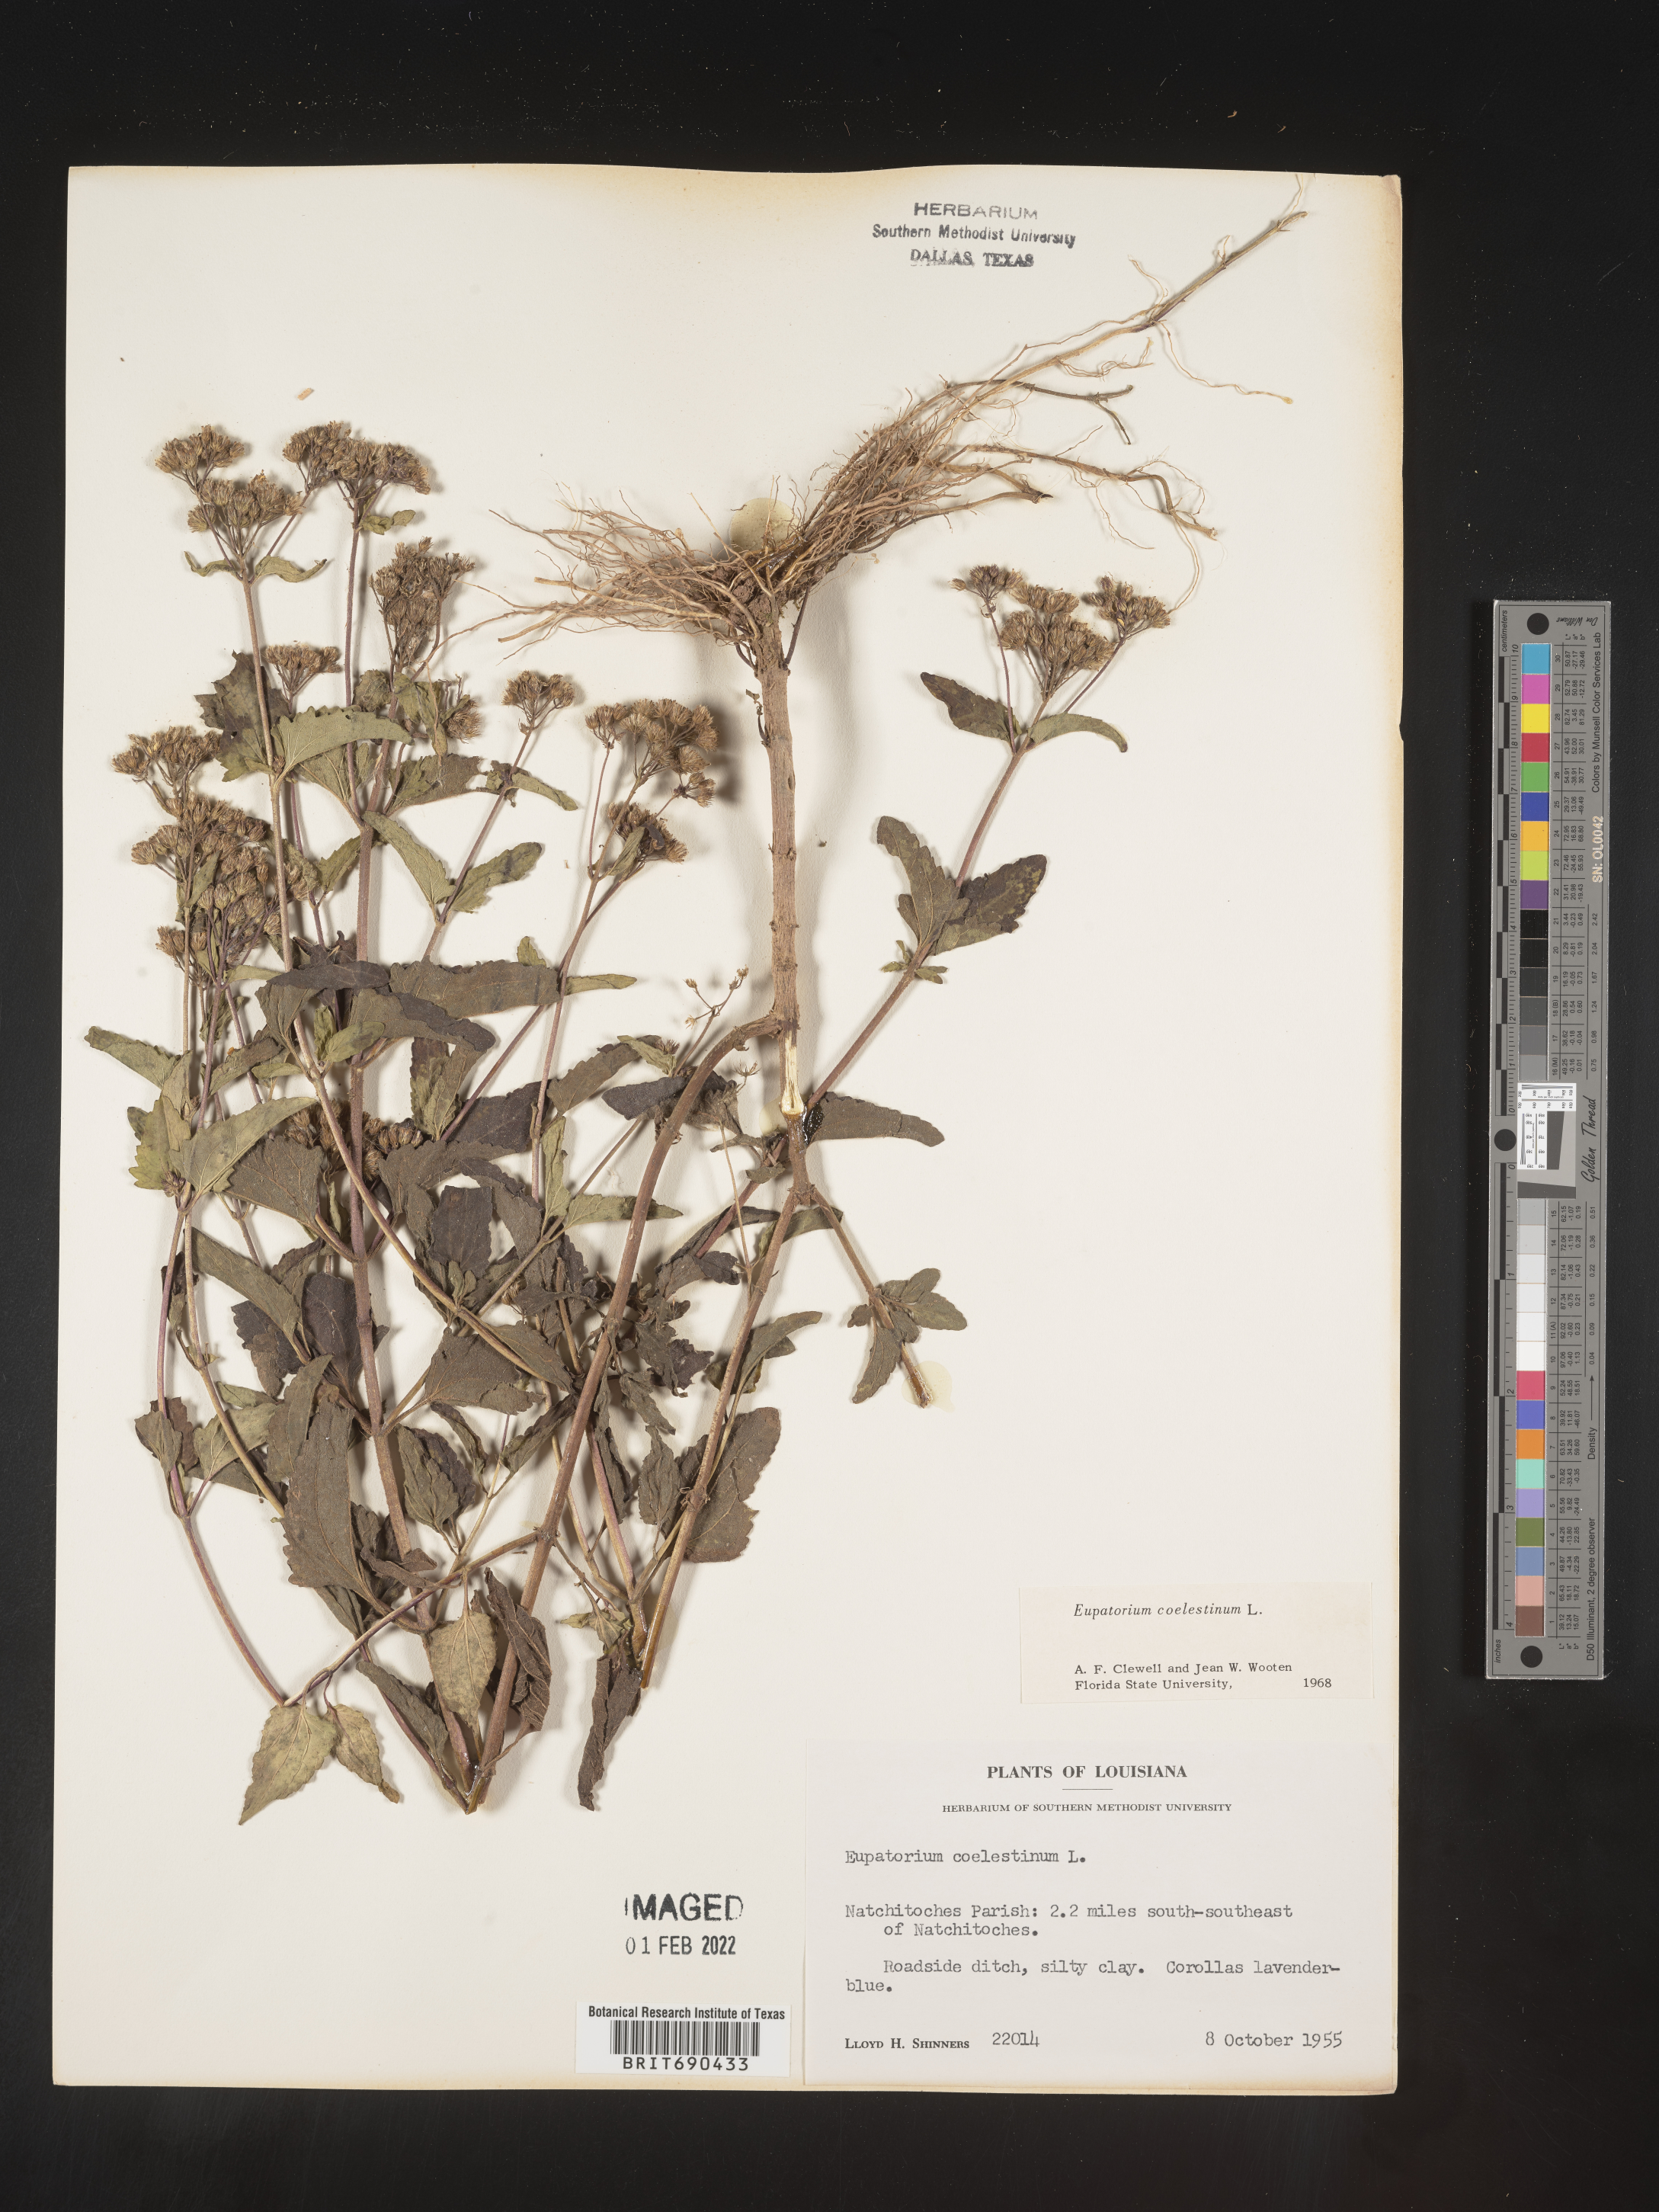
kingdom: Plantae
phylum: Tracheophyta
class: Magnoliopsida
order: Asterales
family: Asteraceae
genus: Conoclinium
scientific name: Conoclinium coelestinum
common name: Blue mistflower
